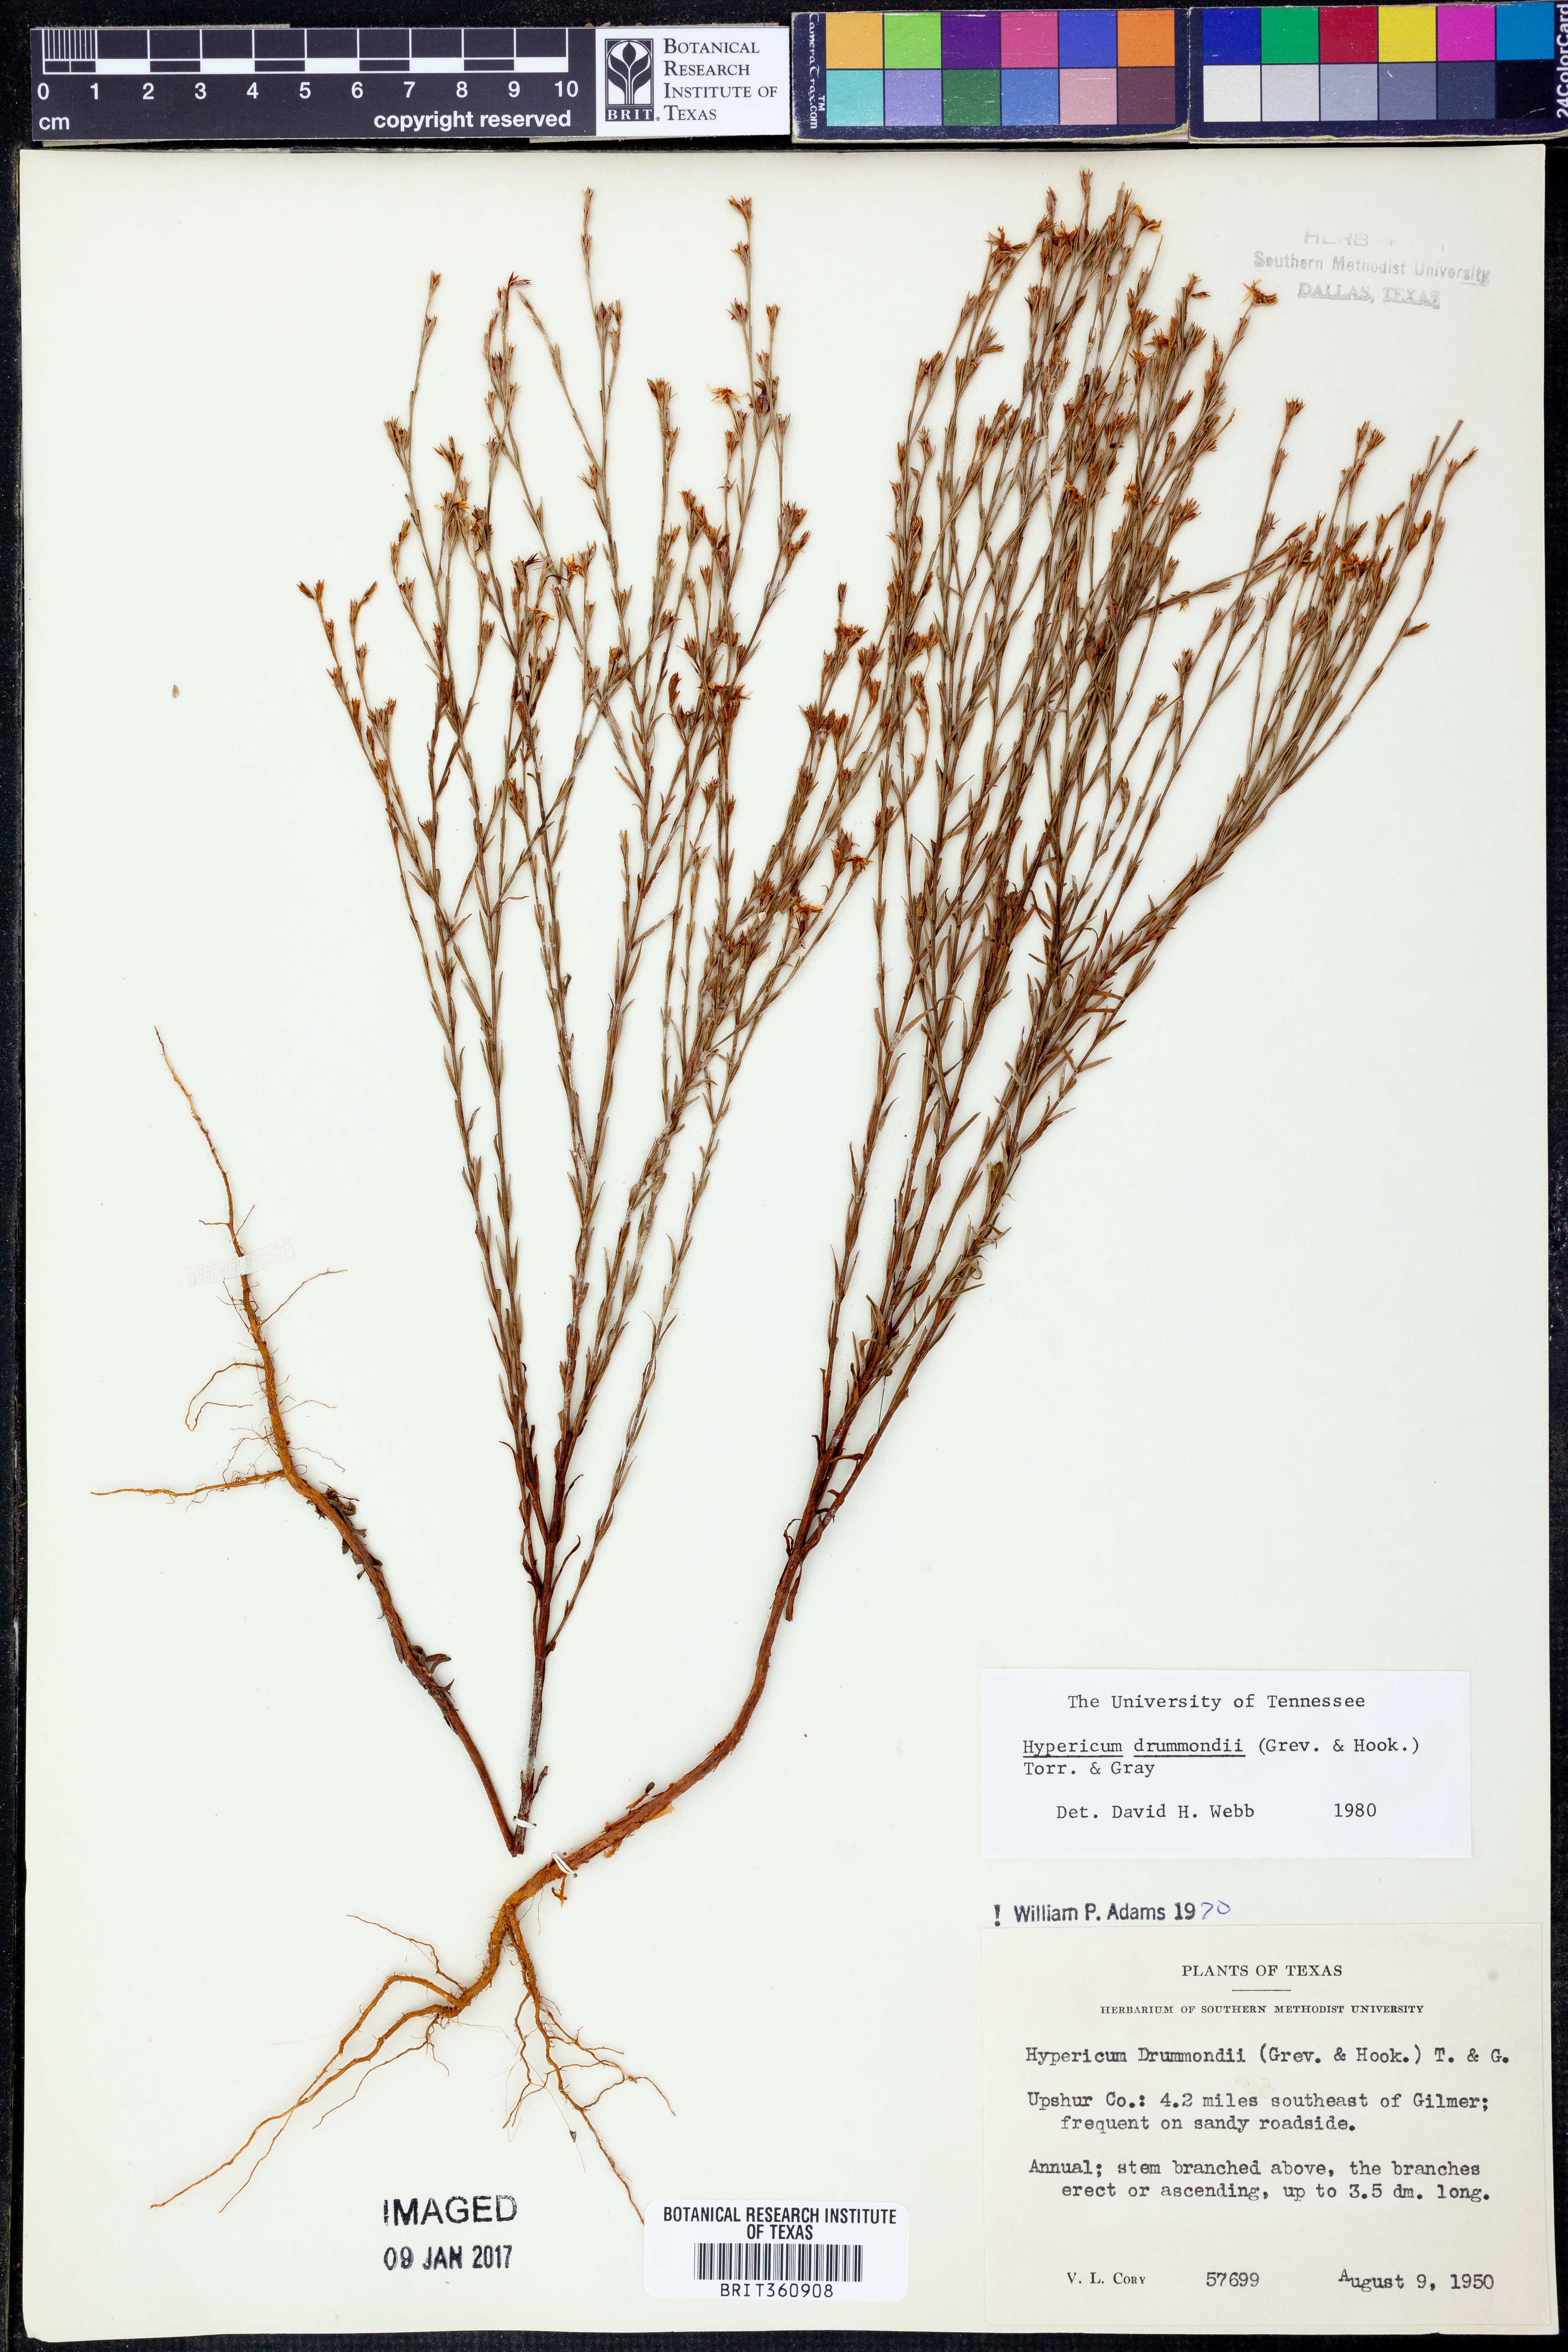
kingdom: Plantae
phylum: Tracheophyta
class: Magnoliopsida
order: Malpighiales
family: Hypericaceae
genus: Hypericum
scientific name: Hypericum drummondii
